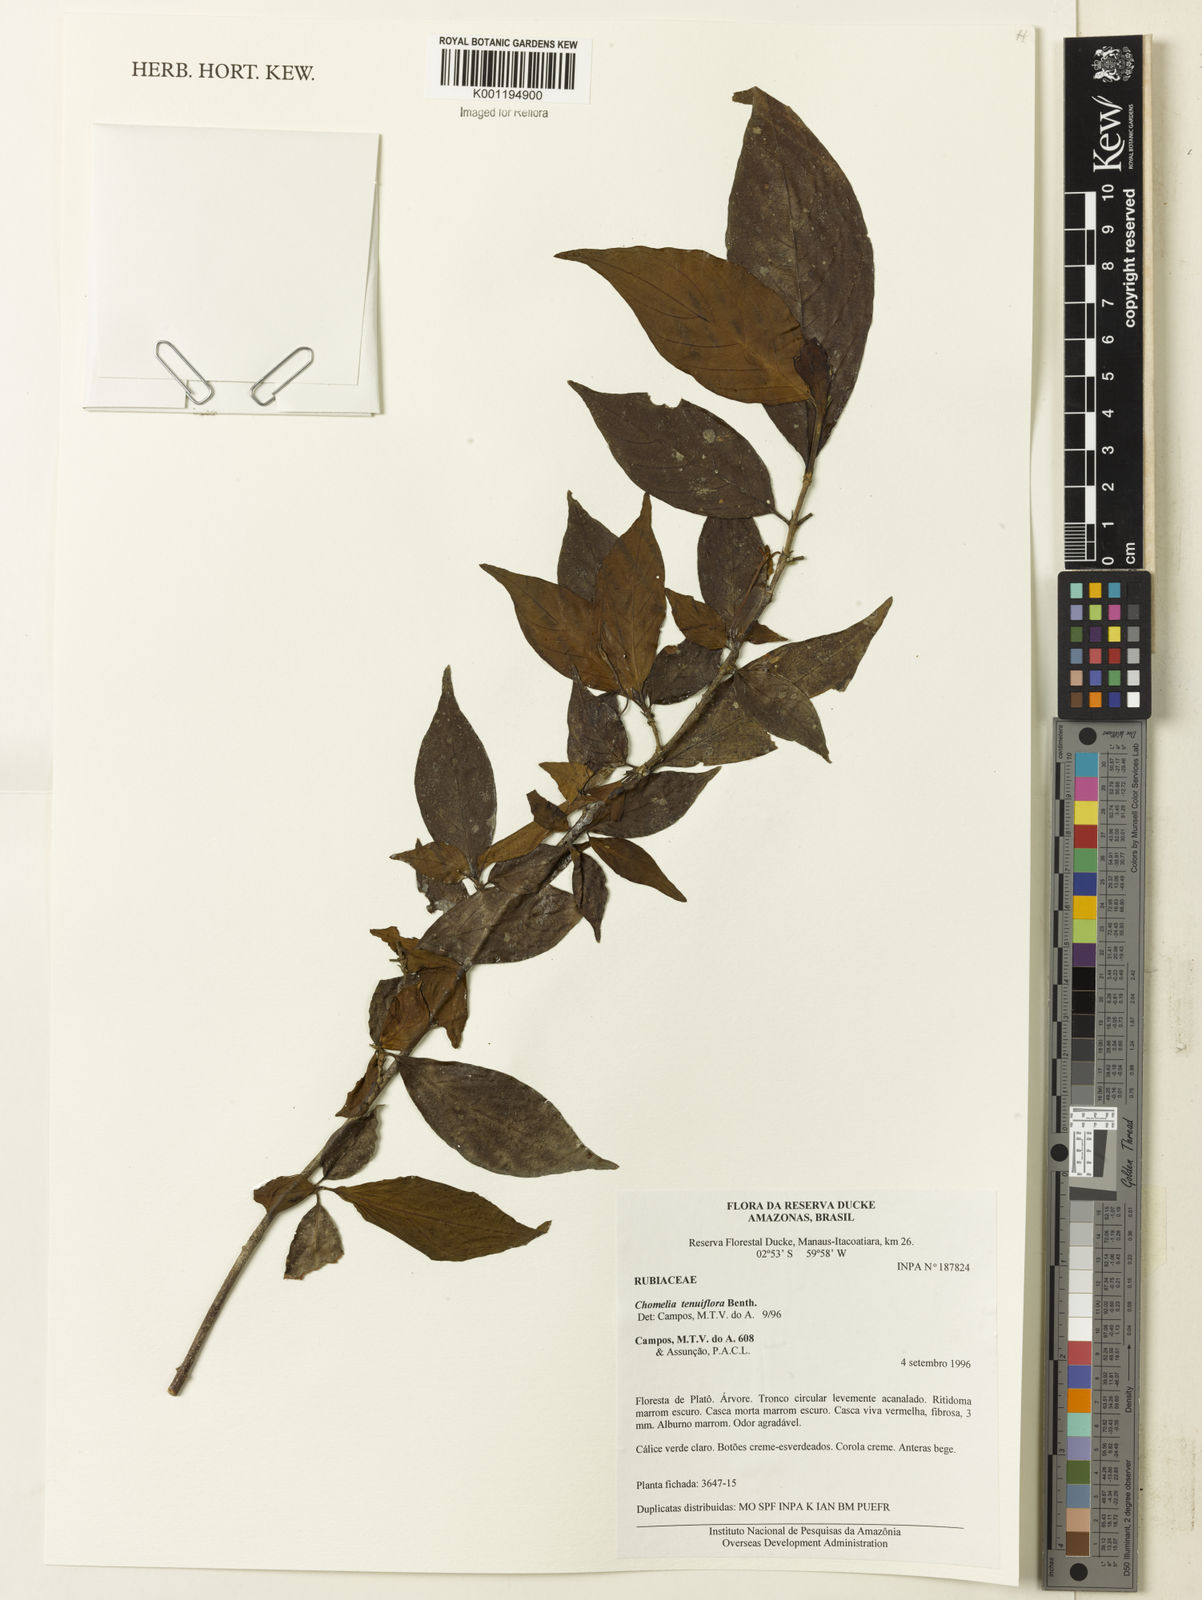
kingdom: Plantae
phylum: Tracheophyta
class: Magnoliopsida
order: Gentianales
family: Rubiaceae
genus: Chomelia
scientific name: Chomelia tenuiflora
